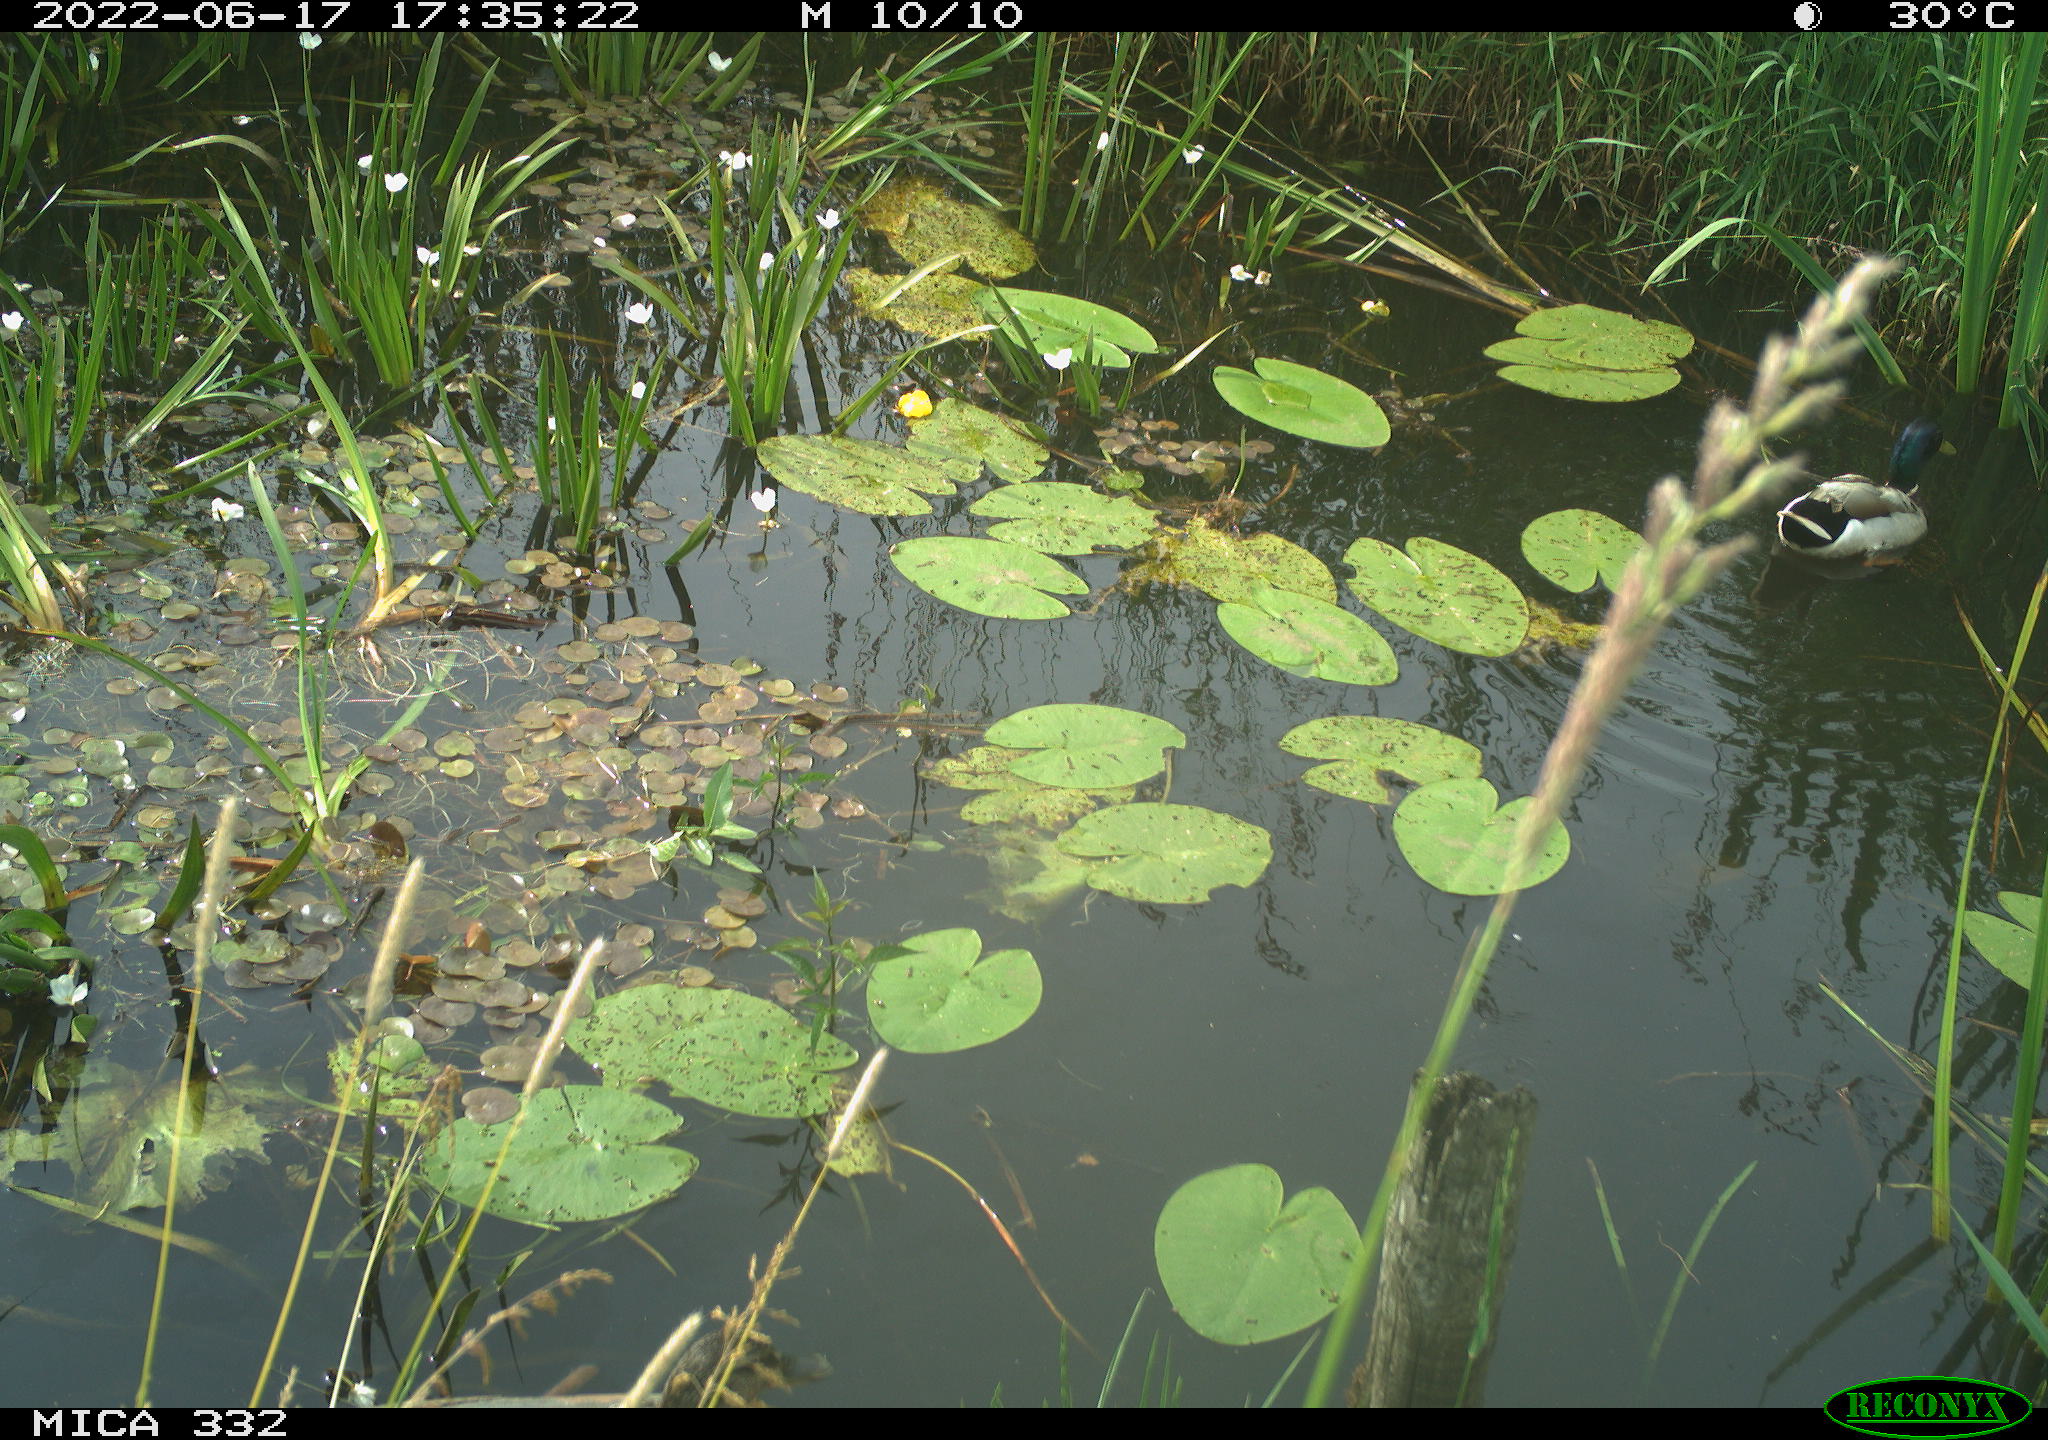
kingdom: Animalia
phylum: Chordata
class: Aves
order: Anseriformes
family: Anatidae
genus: Anas
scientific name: Anas platyrhynchos
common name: Mallard
